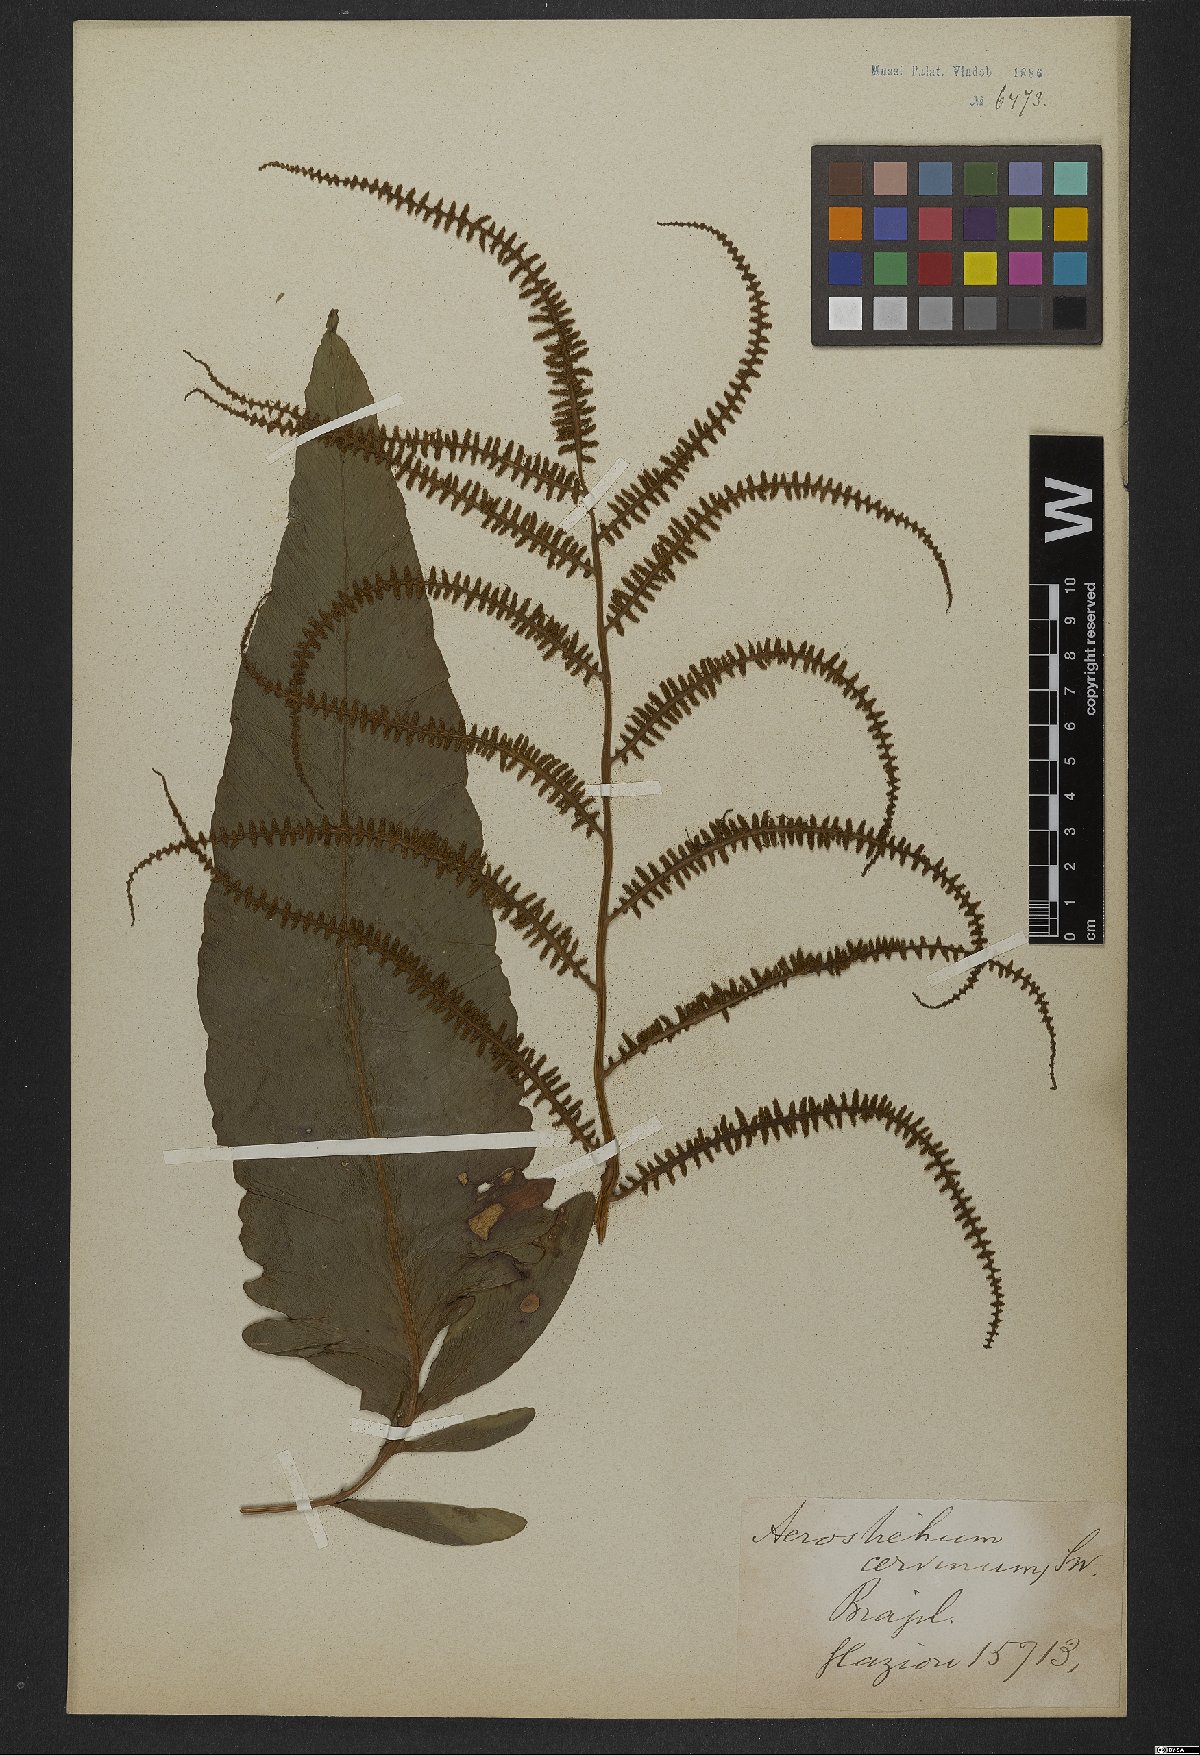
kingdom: Plantae
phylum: Tracheophyta
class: Polypodiopsida
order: Polypodiales
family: Dryopteridaceae
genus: Olfersia
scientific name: Olfersia cervina
